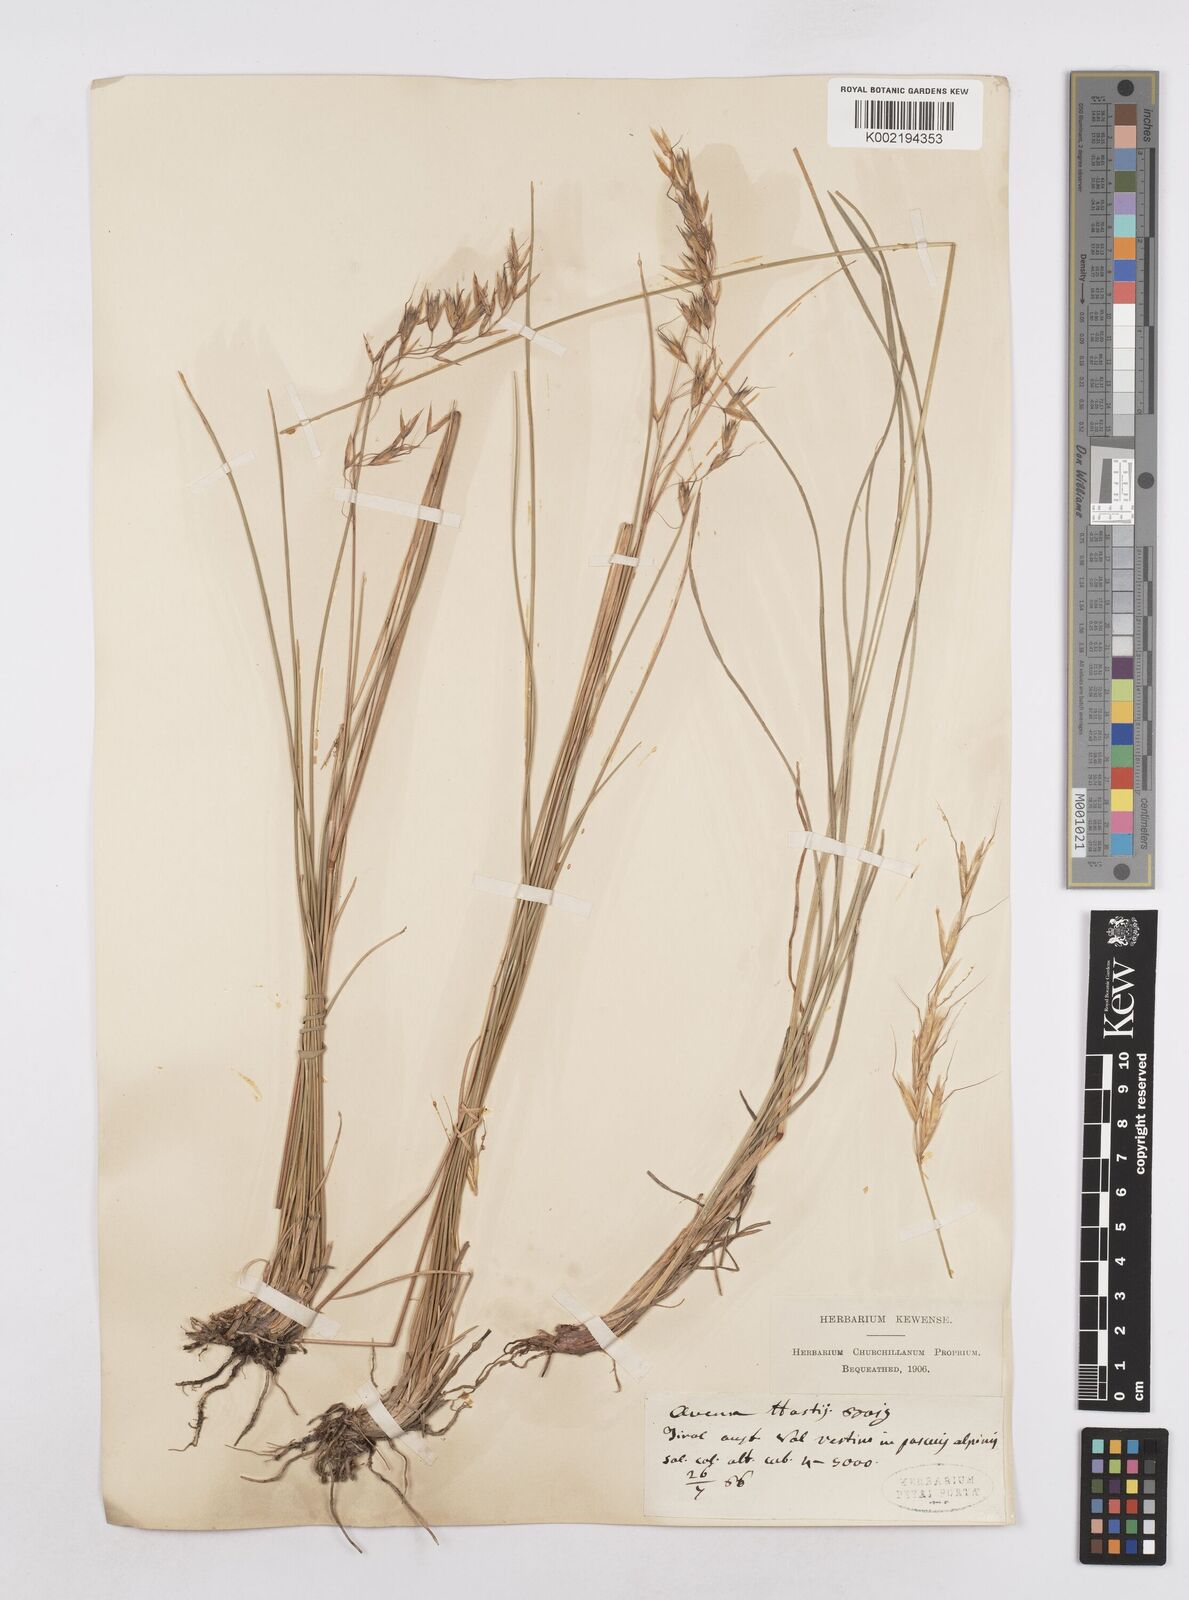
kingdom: Plantae
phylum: Tracheophyta
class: Liliopsida
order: Poales
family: Poaceae
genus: Helictotrichon
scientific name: Helictotrichon parlatorei
